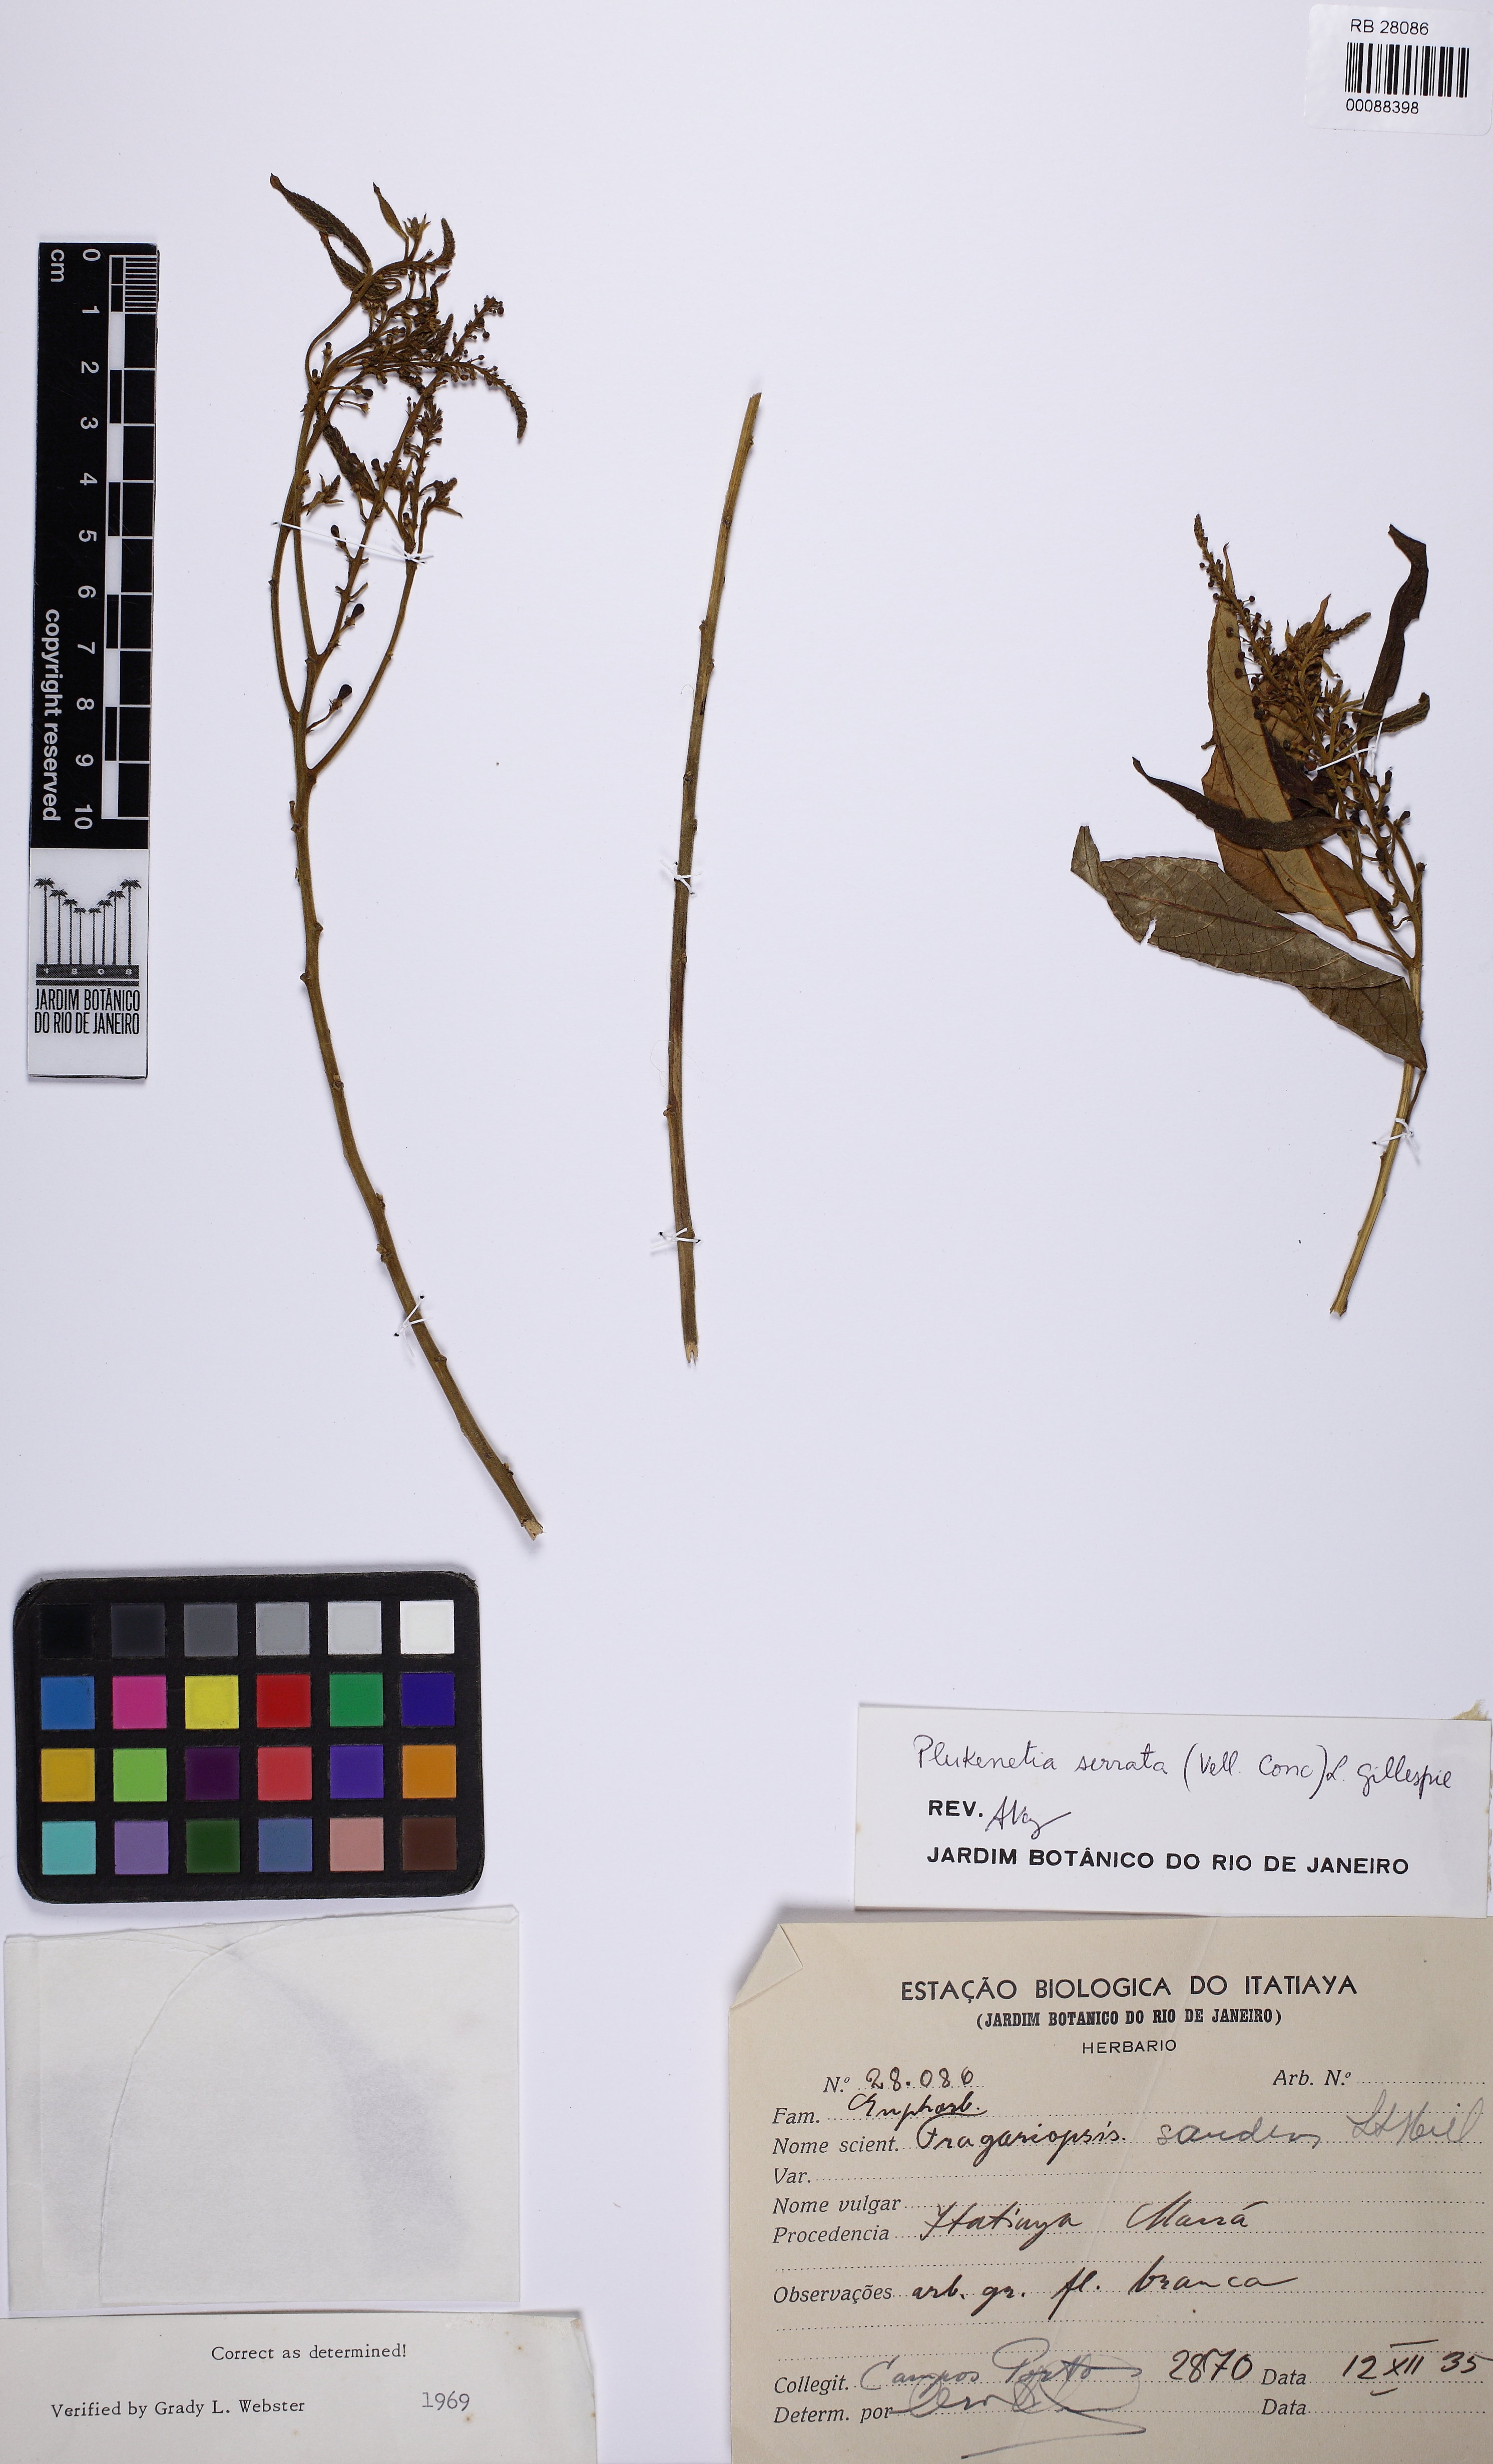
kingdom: Plantae
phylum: Tracheophyta
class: Magnoliopsida
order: Malpighiales
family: Euphorbiaceae
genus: Plukenetia
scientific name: Plukenetia serrata
